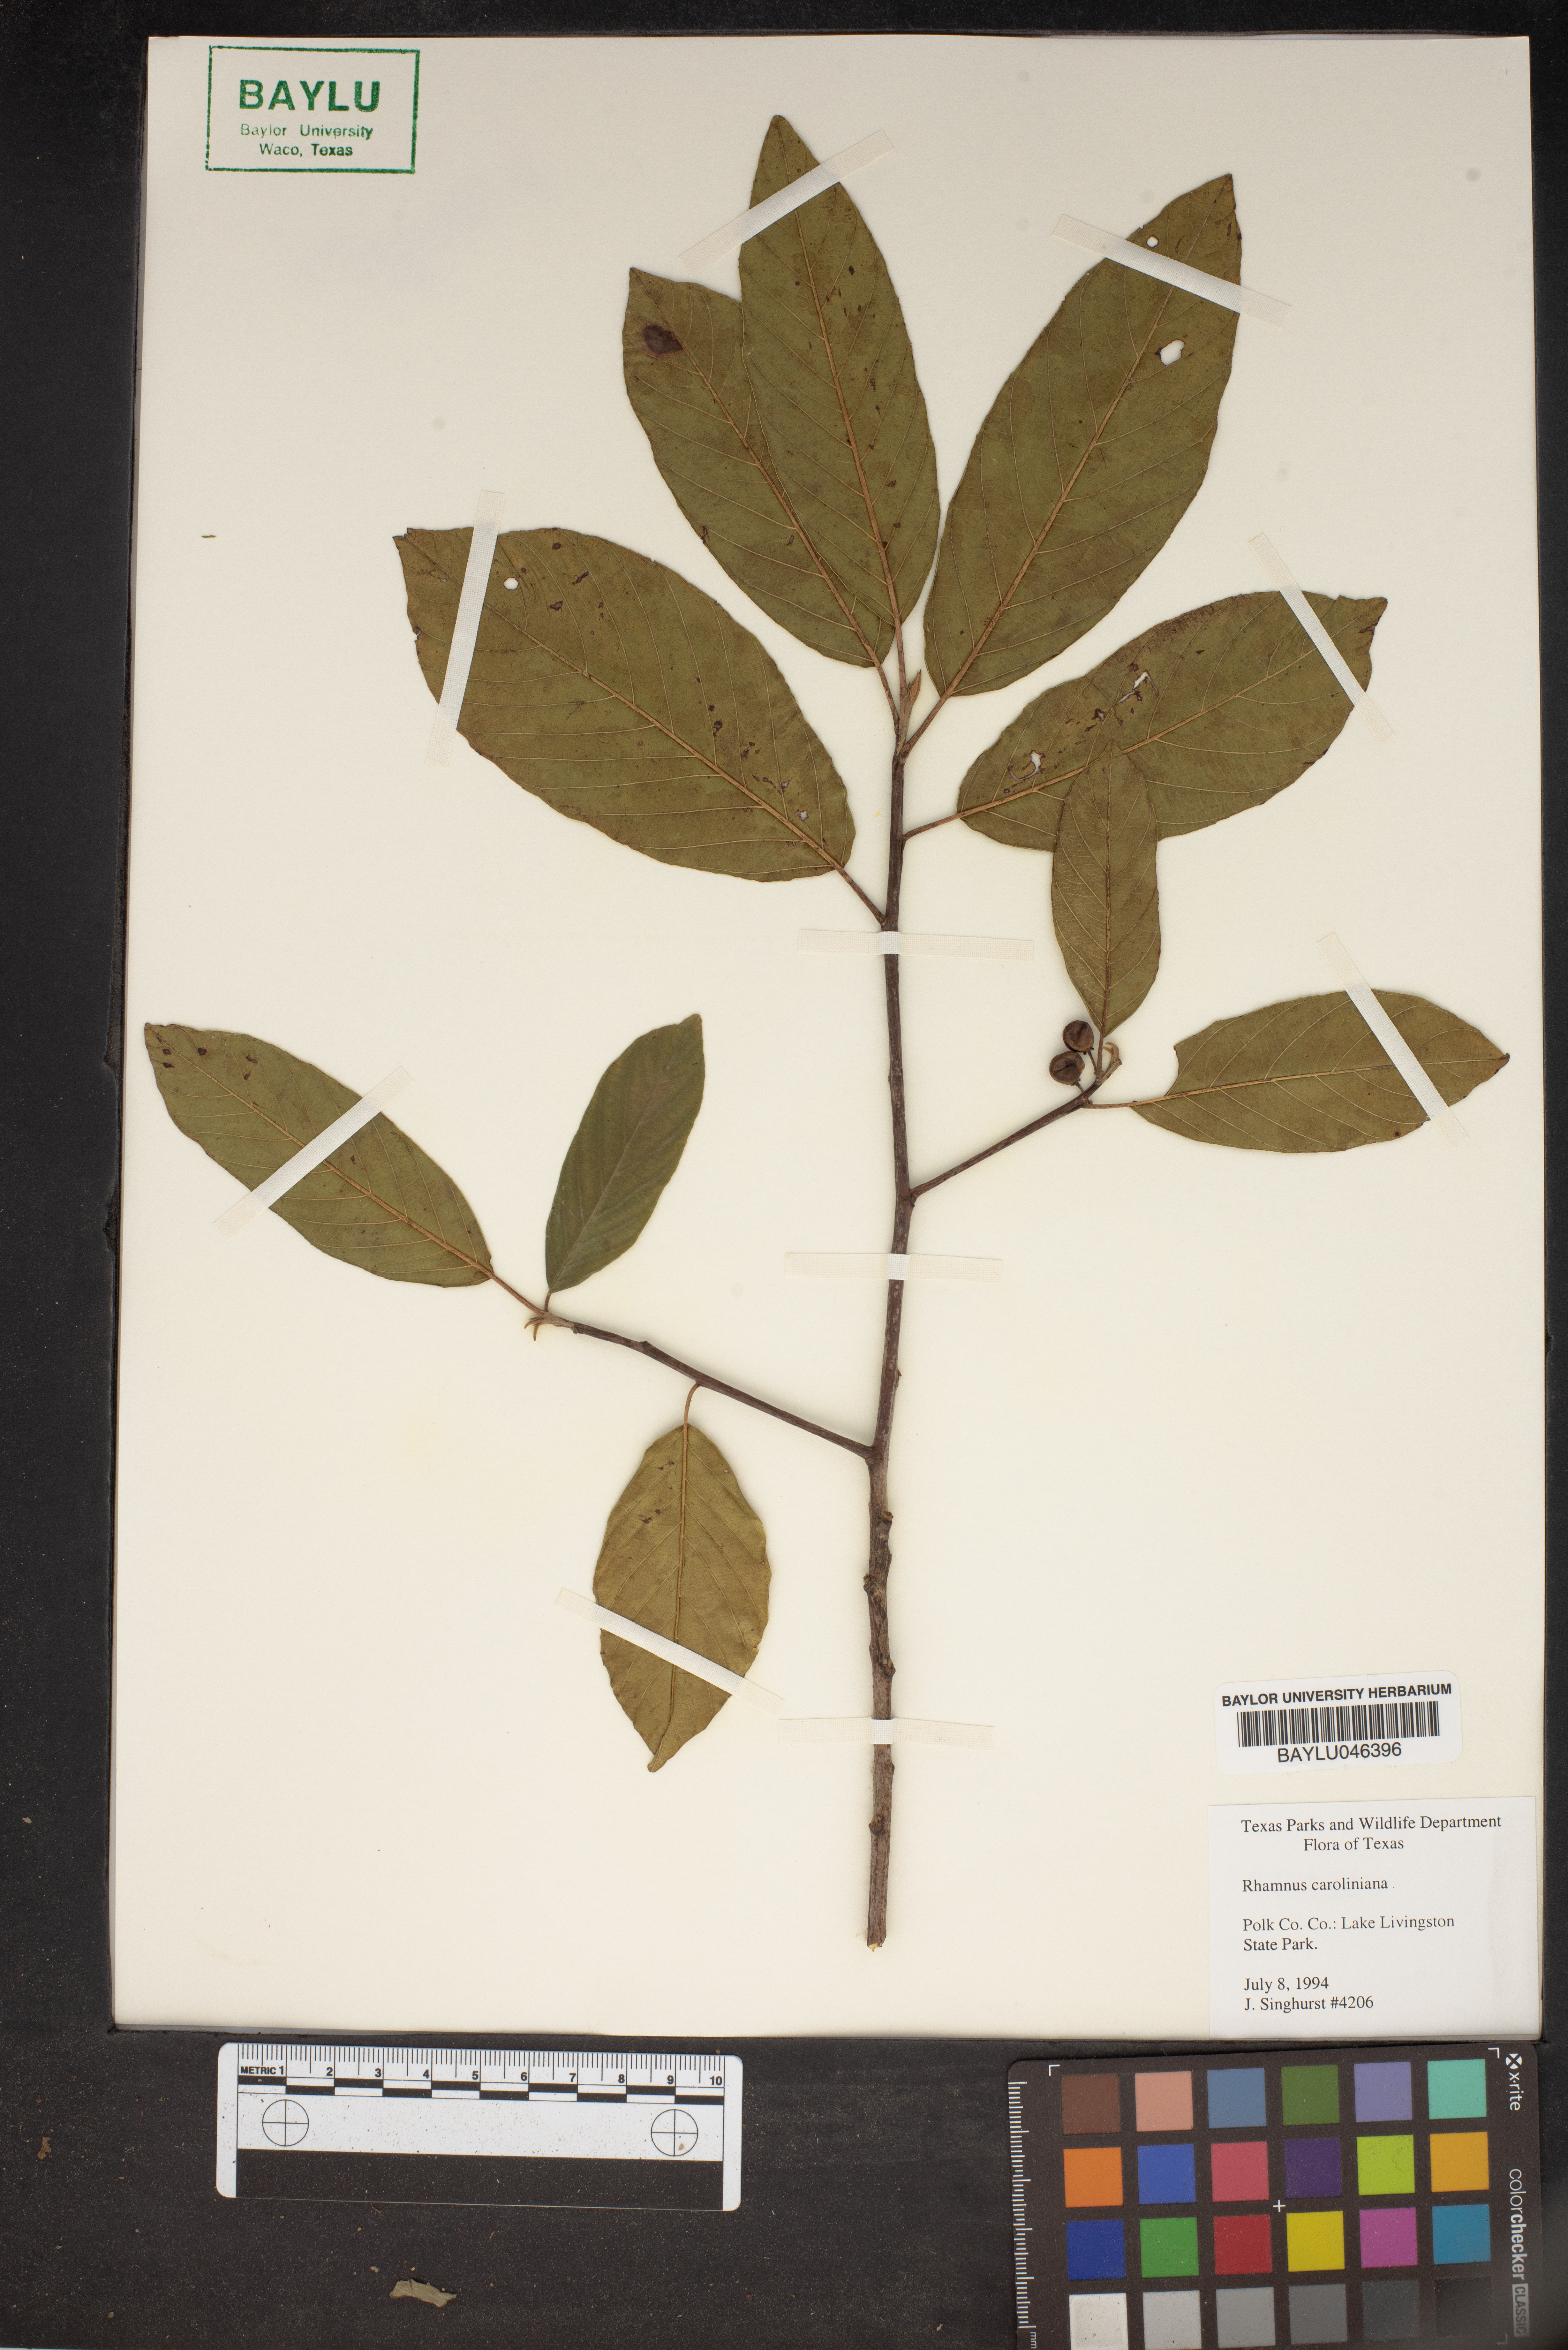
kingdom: Plantae
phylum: Tracheophyta
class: Magnoliopsida
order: Rosales
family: Rhamnaceae
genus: Frangula
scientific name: Frangula caroliniana
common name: Carolina buckthorn
